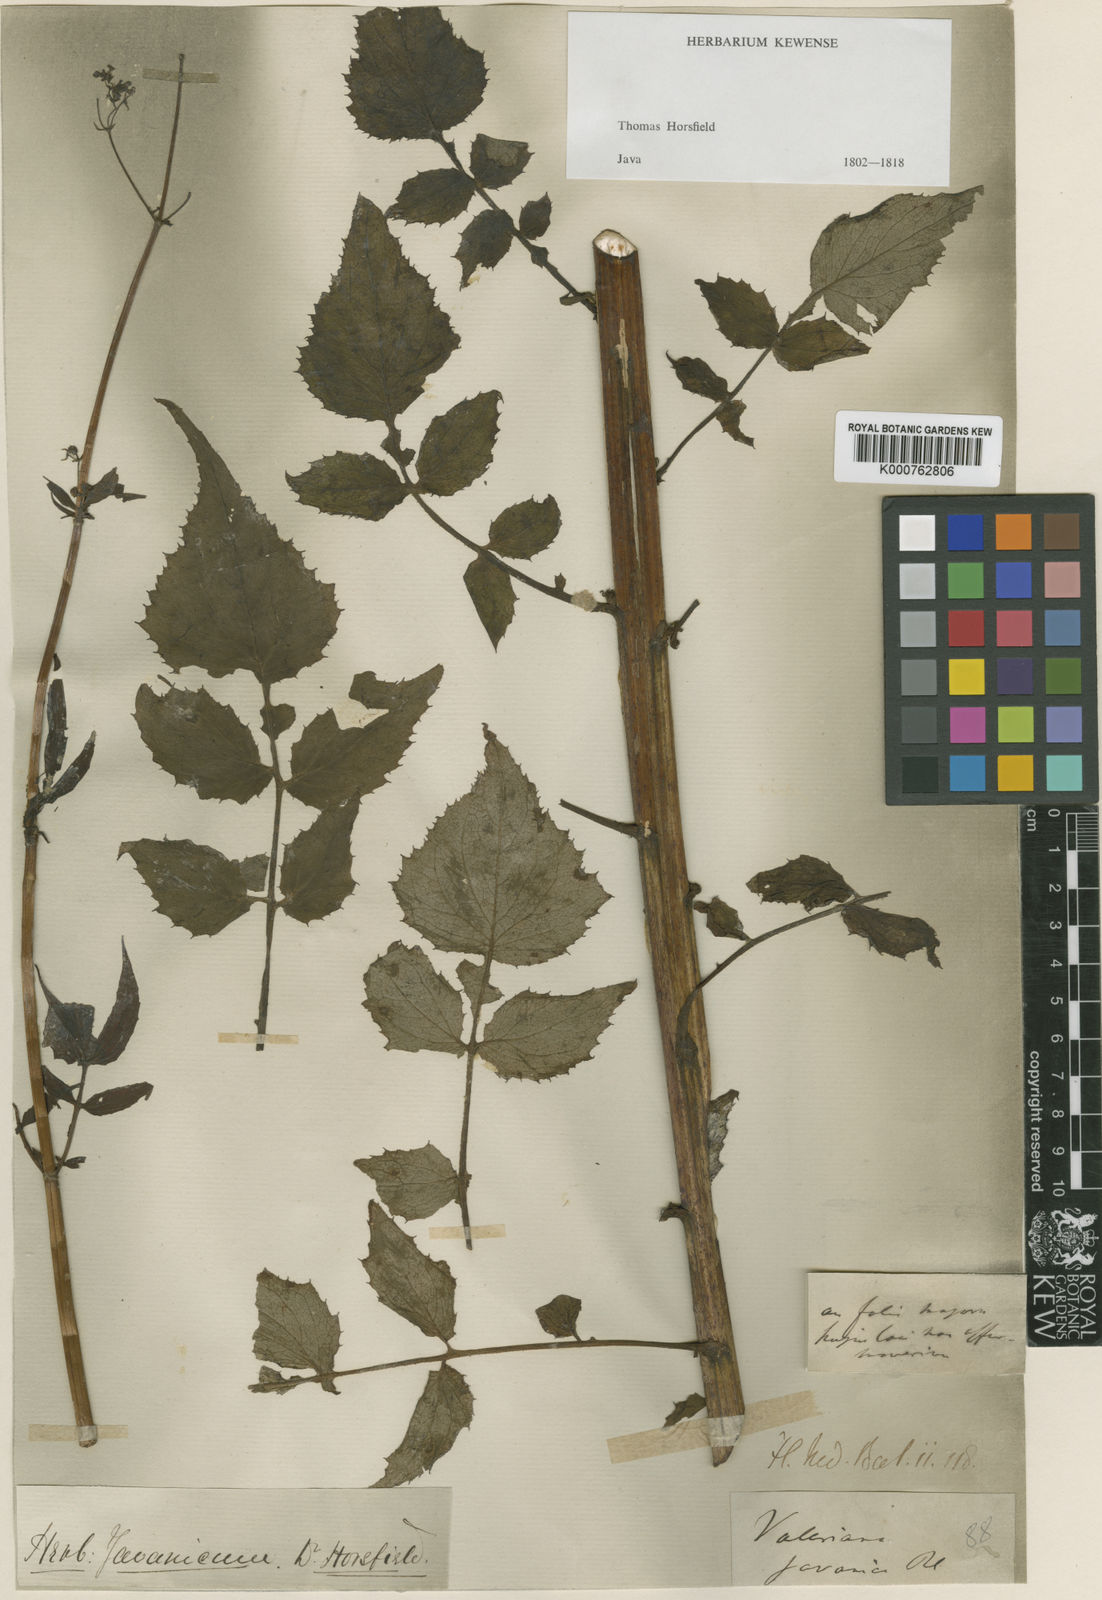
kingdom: Plantae
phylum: Tracheophyta
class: Magnoliopsida
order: Dipsacales
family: Caprifoliaceae
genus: Valeriana
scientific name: Valeriana hardwickei
